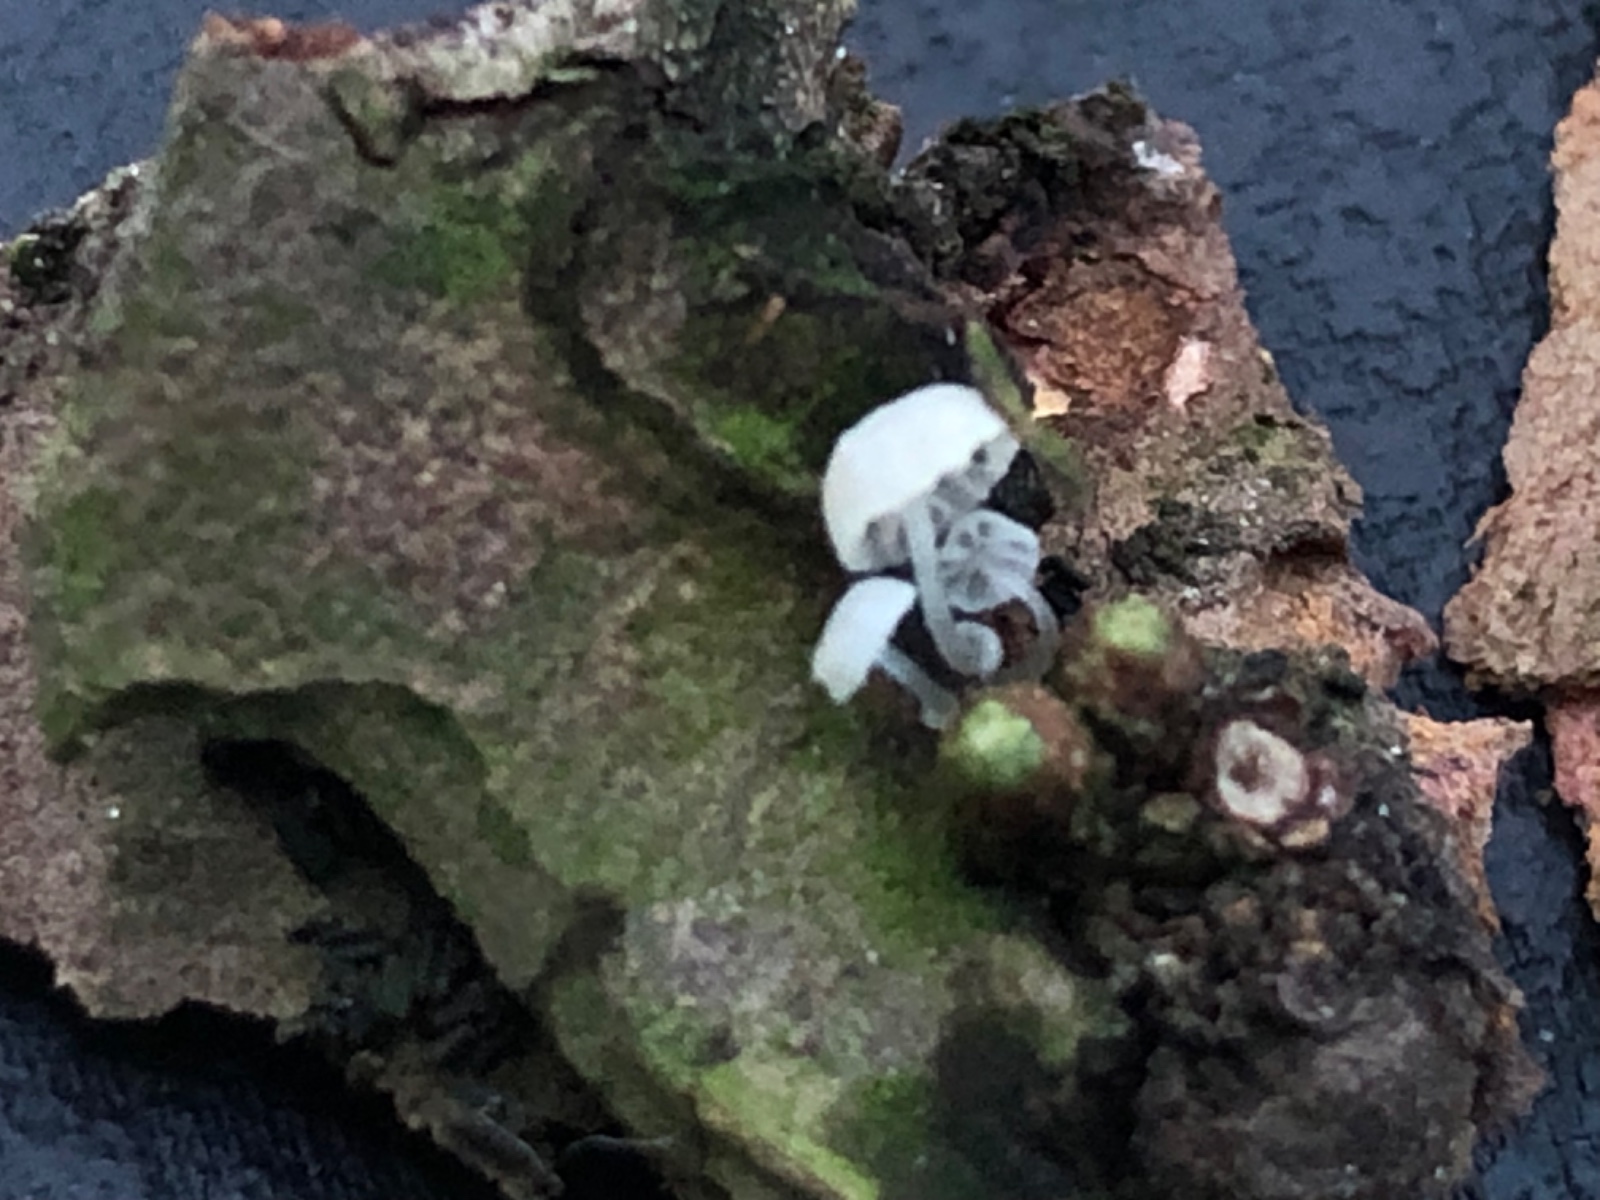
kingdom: Fungi
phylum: Basidiomycota
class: Agaricomycetes
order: Agaricales
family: Mycenaceae
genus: Mycena
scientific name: Mycena clavularis
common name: dunskivet huesvamp
